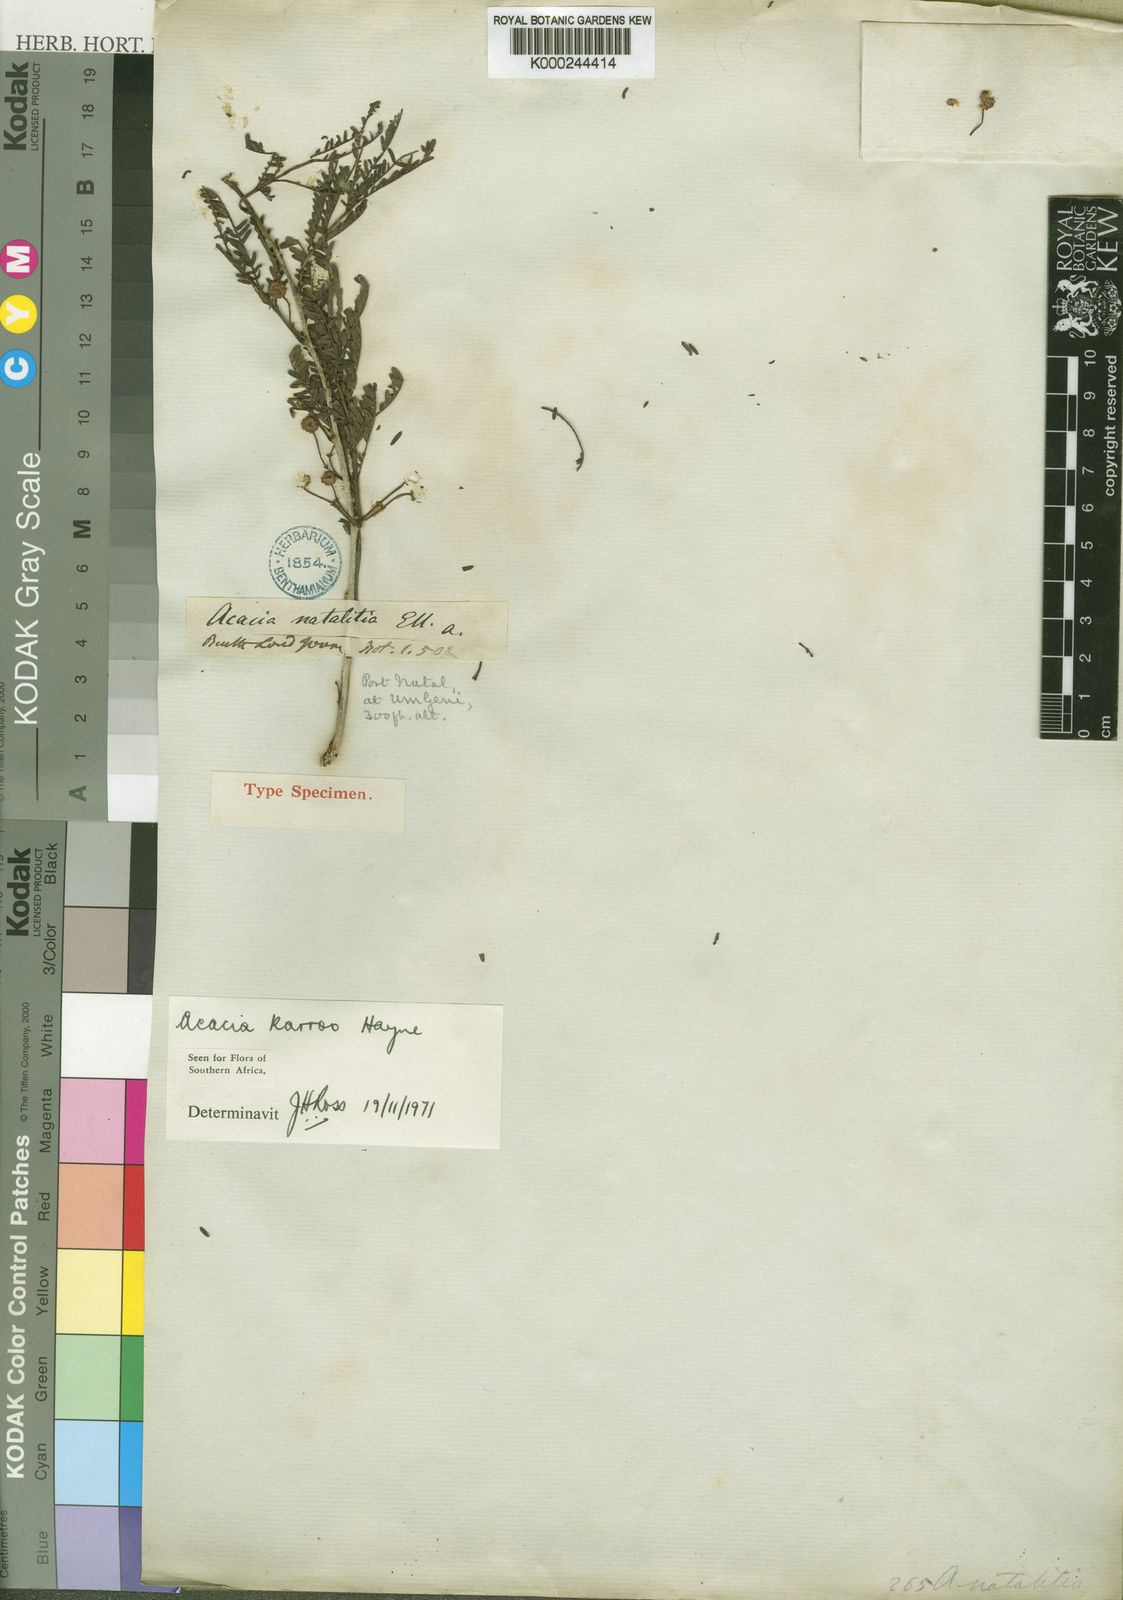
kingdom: Plantae
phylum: Tracheophyta
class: Magnoliopsida
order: Fabales
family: Fabaceae
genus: Vachellia
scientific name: Vachellia karroo
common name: Sweet thorn
